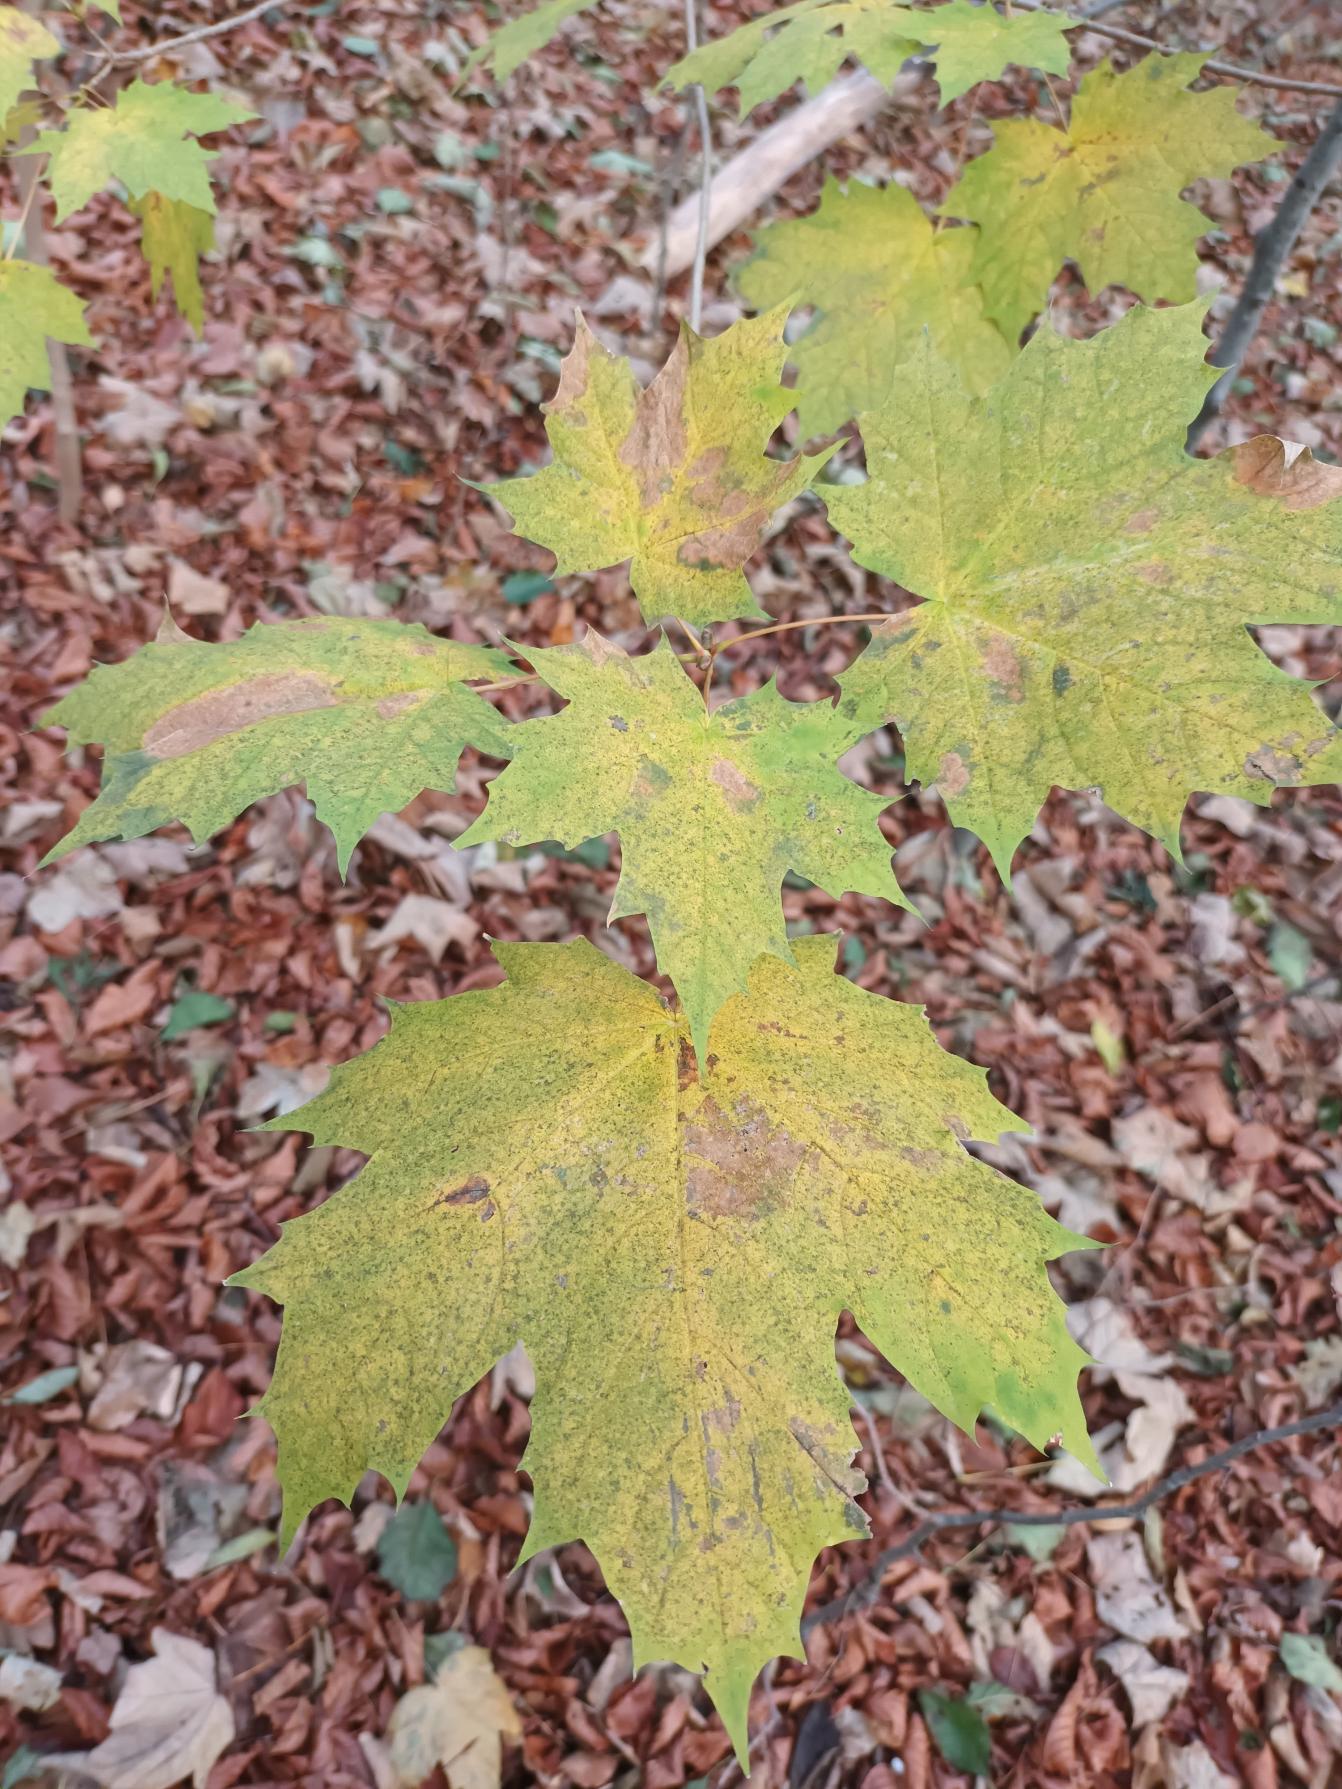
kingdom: Plantae
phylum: Tracheophyta
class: Magnoliopsida
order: Sapindales
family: Sapindaceae
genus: Acer
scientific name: Acer platanoides
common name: Spids-løn
